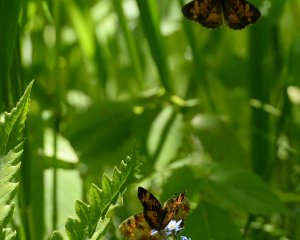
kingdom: Animalia
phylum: Arthropoda
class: Insecta
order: Lepidoptera
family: Nymphalidae
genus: Phyciodes
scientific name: Phyciodes tharos
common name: Northern Crescent
